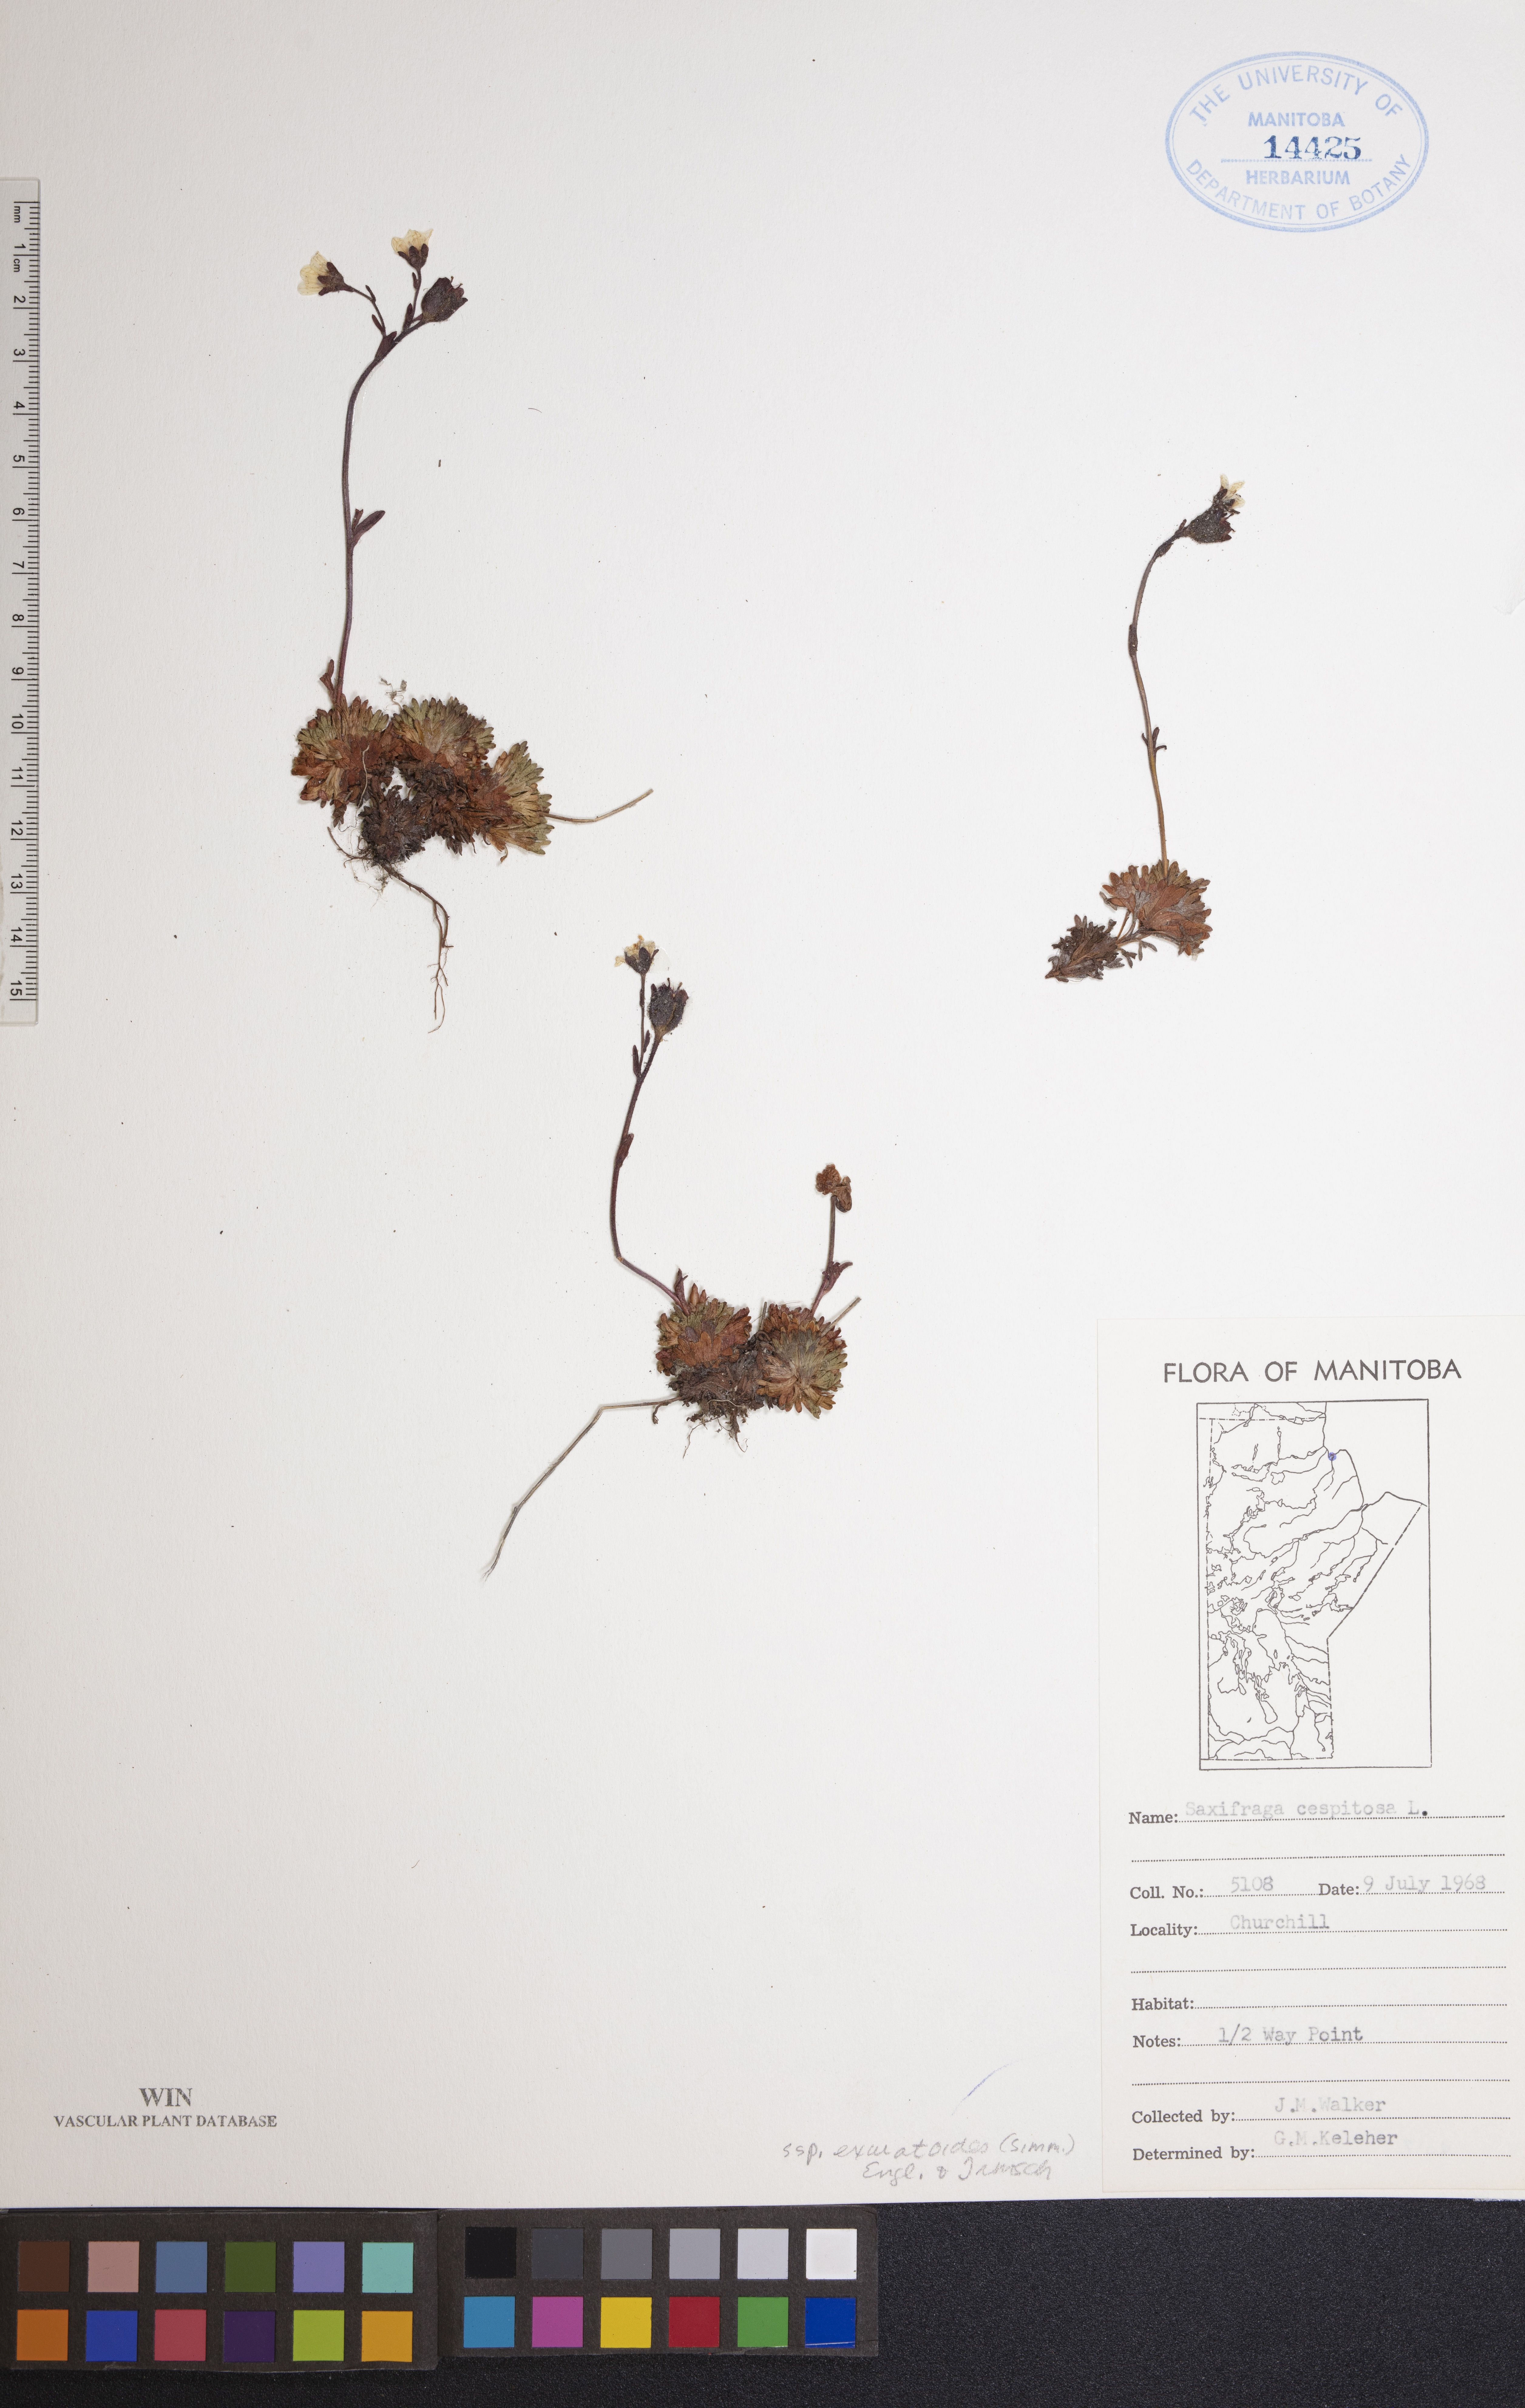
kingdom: Plantae
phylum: Tracheophyta
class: Magnoliopsida
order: Saxifragales
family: Saxifragaceae
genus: Saxifraga
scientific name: Saxifraga cespitosa
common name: Tufted saxifrage
